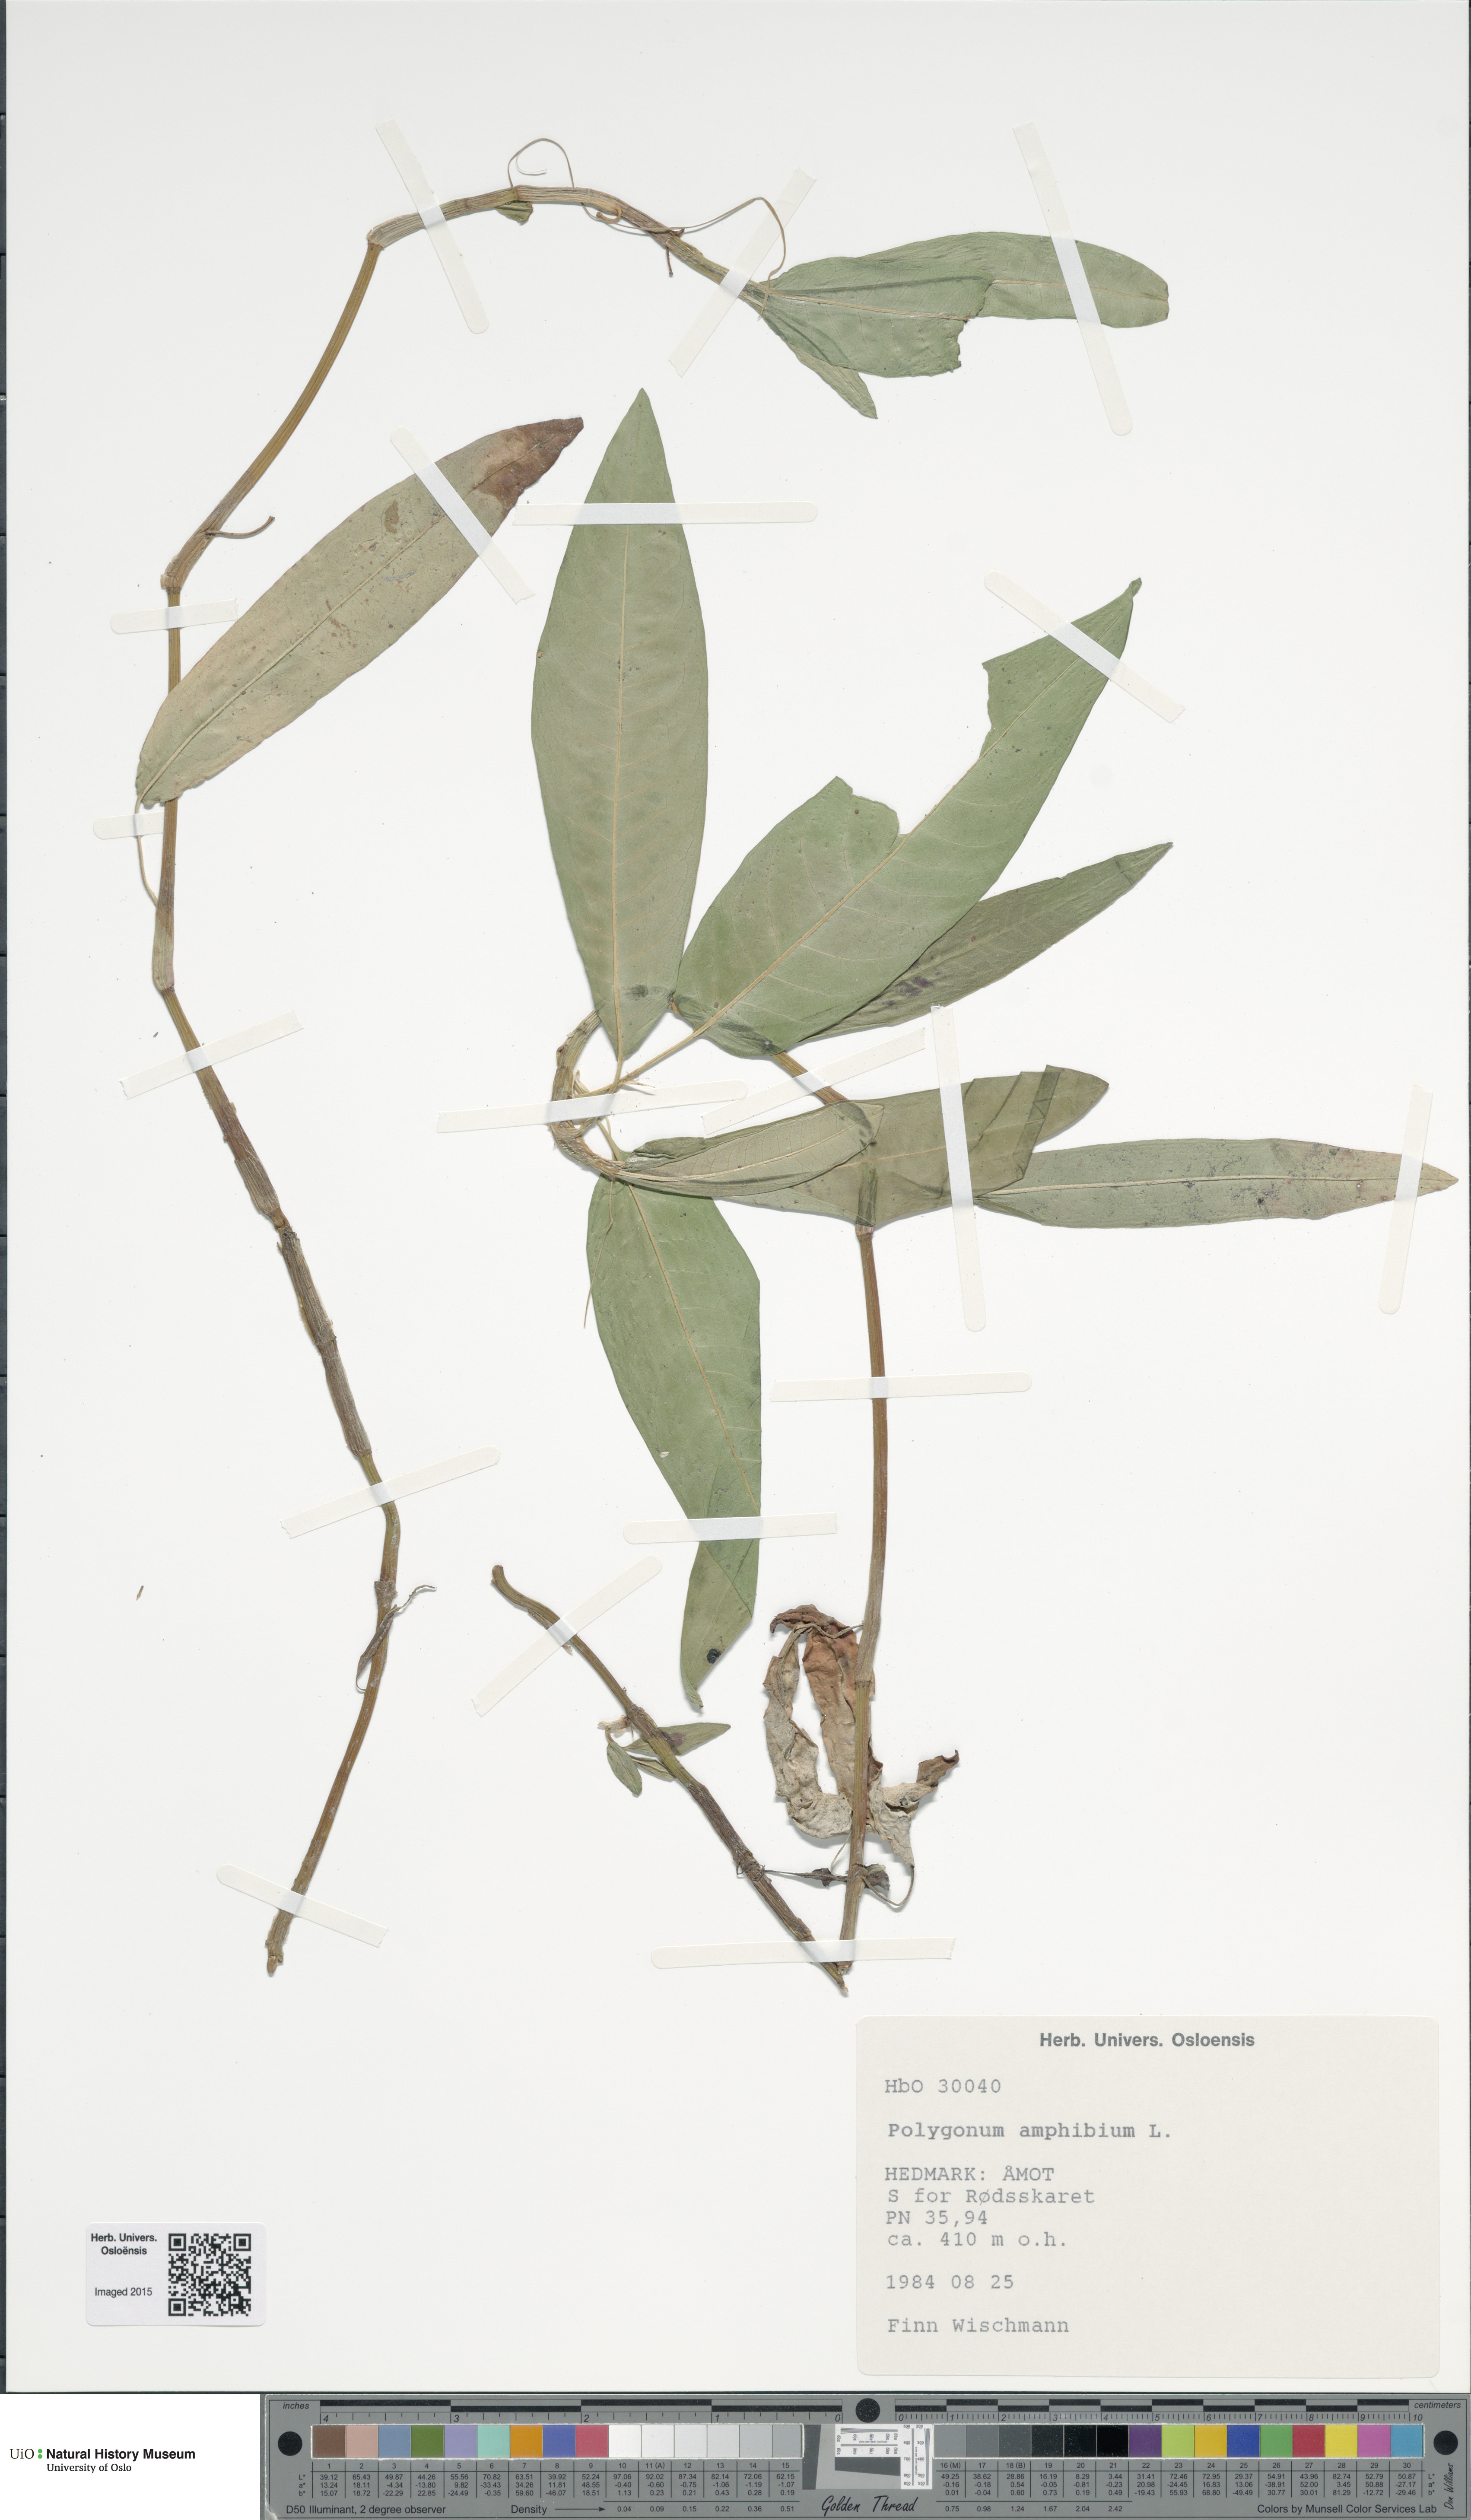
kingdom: Plantae
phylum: Tracheophyta
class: Magnoliopsida
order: Caryophyllales
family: Polygonaceae
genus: Persicaria
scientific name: Persicaria amphibia
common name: Amphibious bistort
